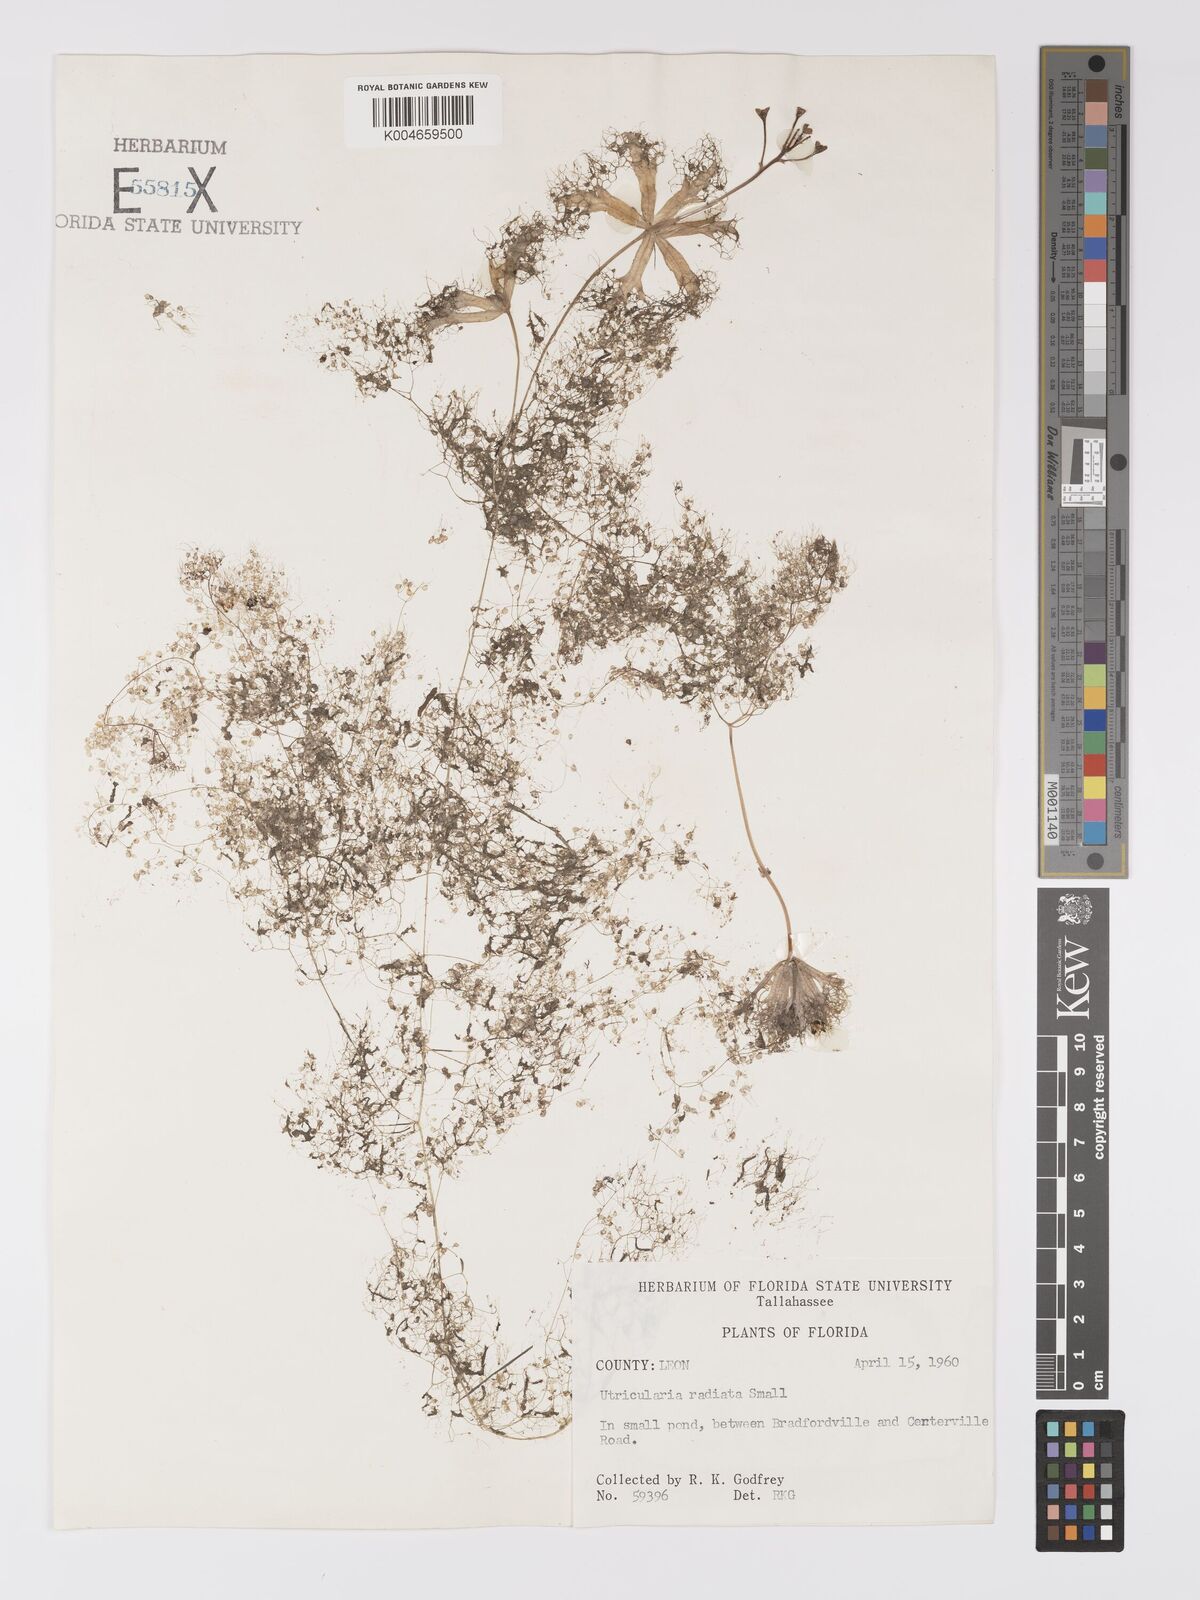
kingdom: Plantae
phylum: Tracheophyta
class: Magnoliopsida
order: Lamiales
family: Lentibulariaceae
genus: Utricularia
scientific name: Utricularia radiata
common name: Floating bladderwort
